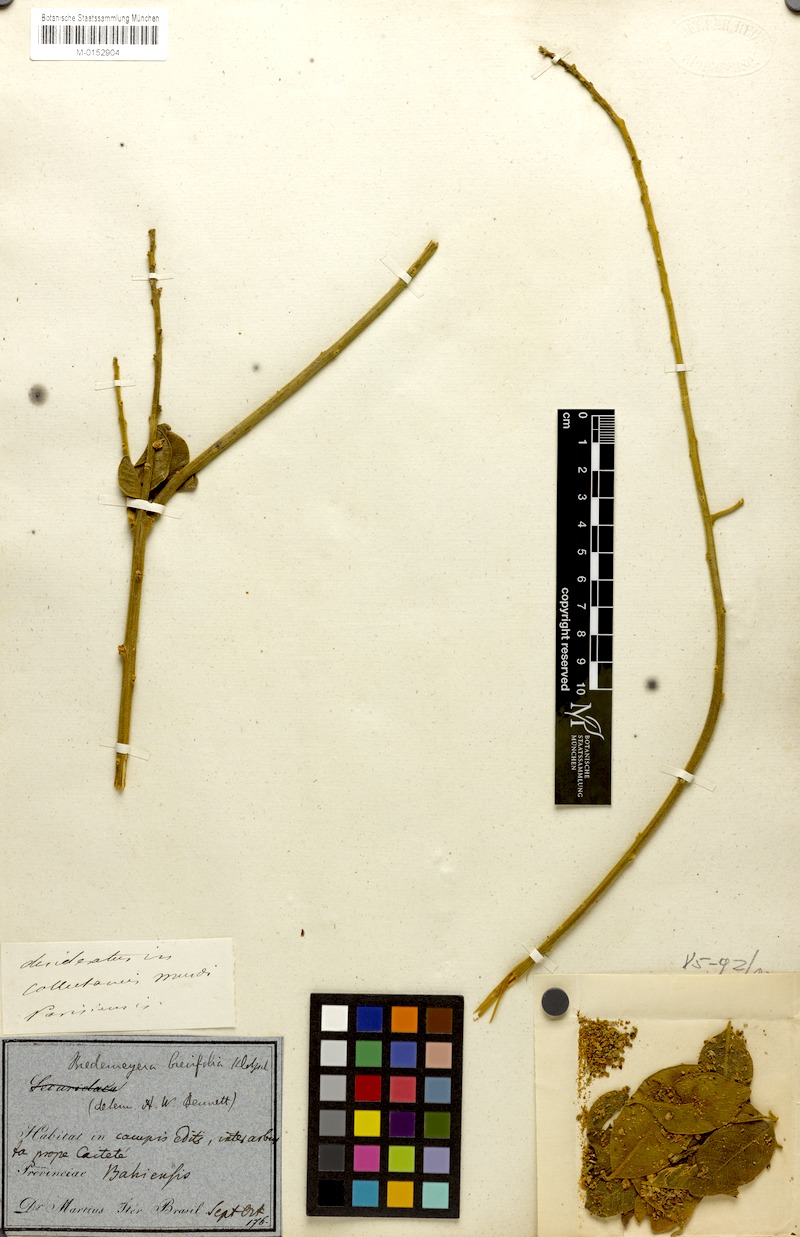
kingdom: Plantae
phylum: Tracheophyta
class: Magnoliopsida
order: Fabales
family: Polygalaceae
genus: Bredemeyera
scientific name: Bredemeyera brevifolia
